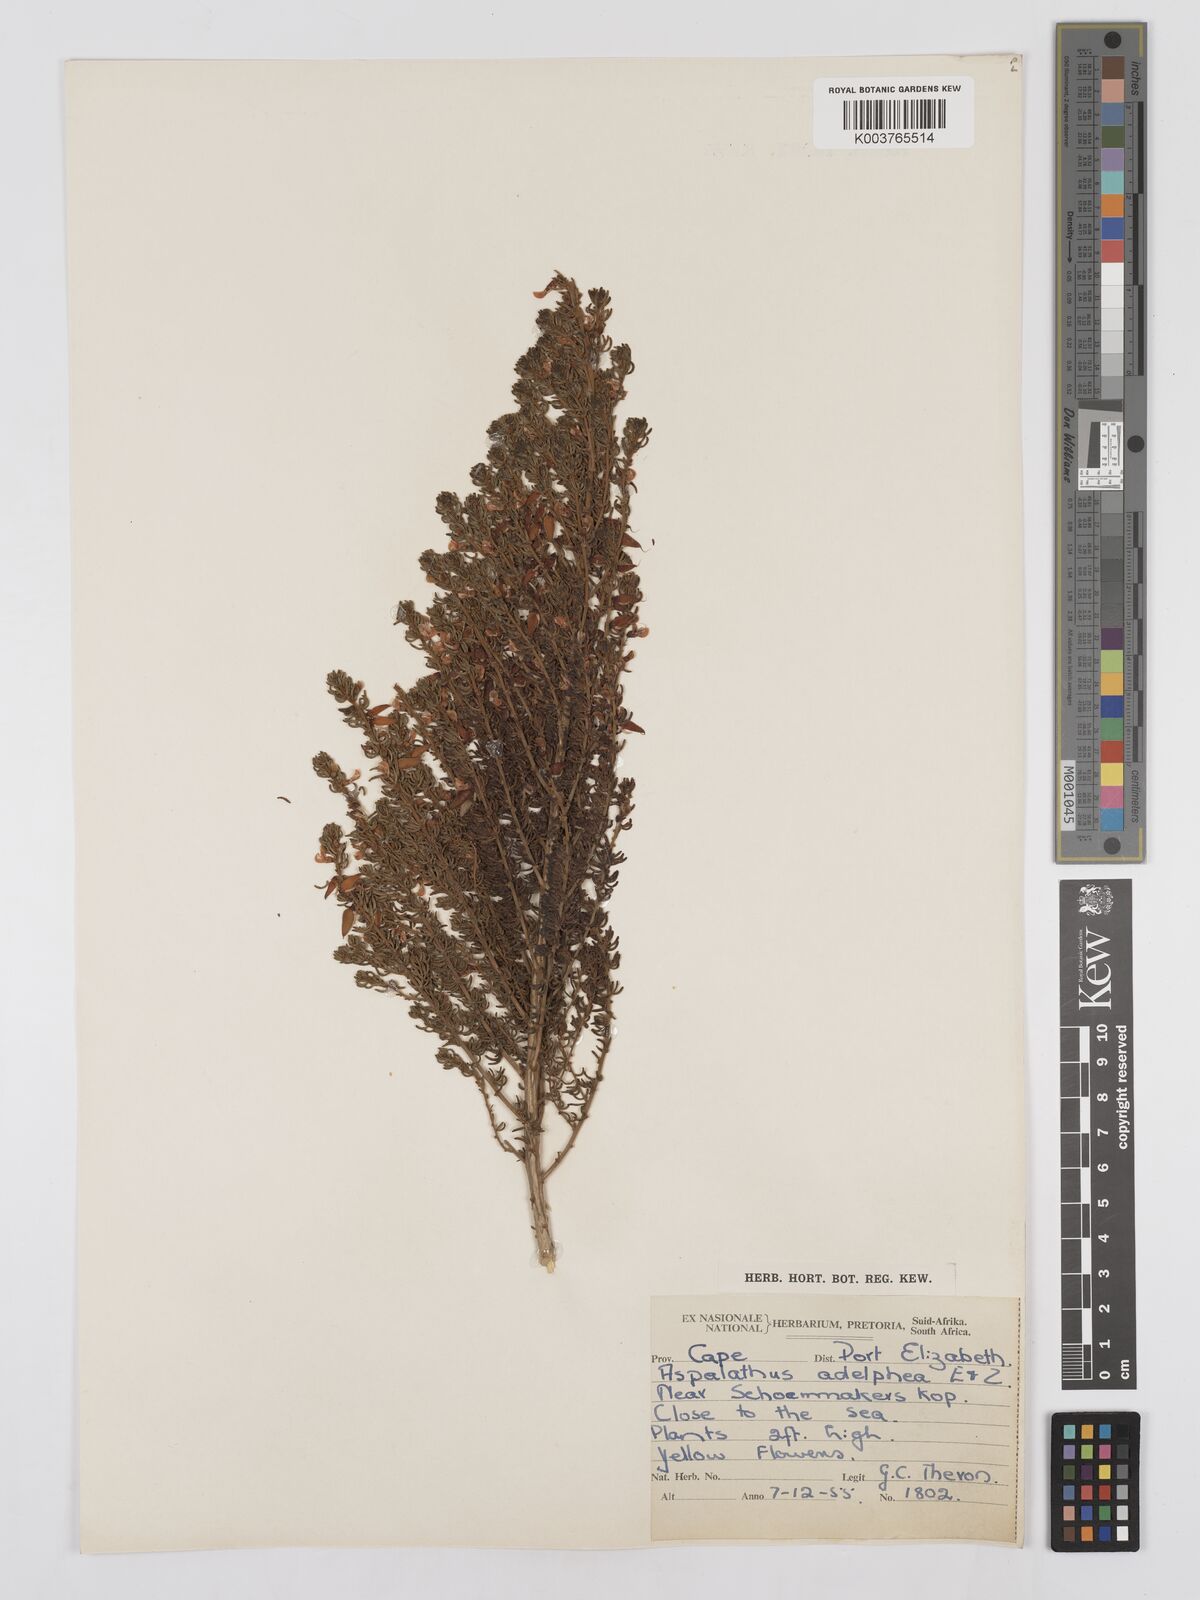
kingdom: Plantae
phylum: Tracheophyta
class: Magnoliopsida
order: Fabales
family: Fabaceae
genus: Aspalathus
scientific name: Aspalathus lactea
